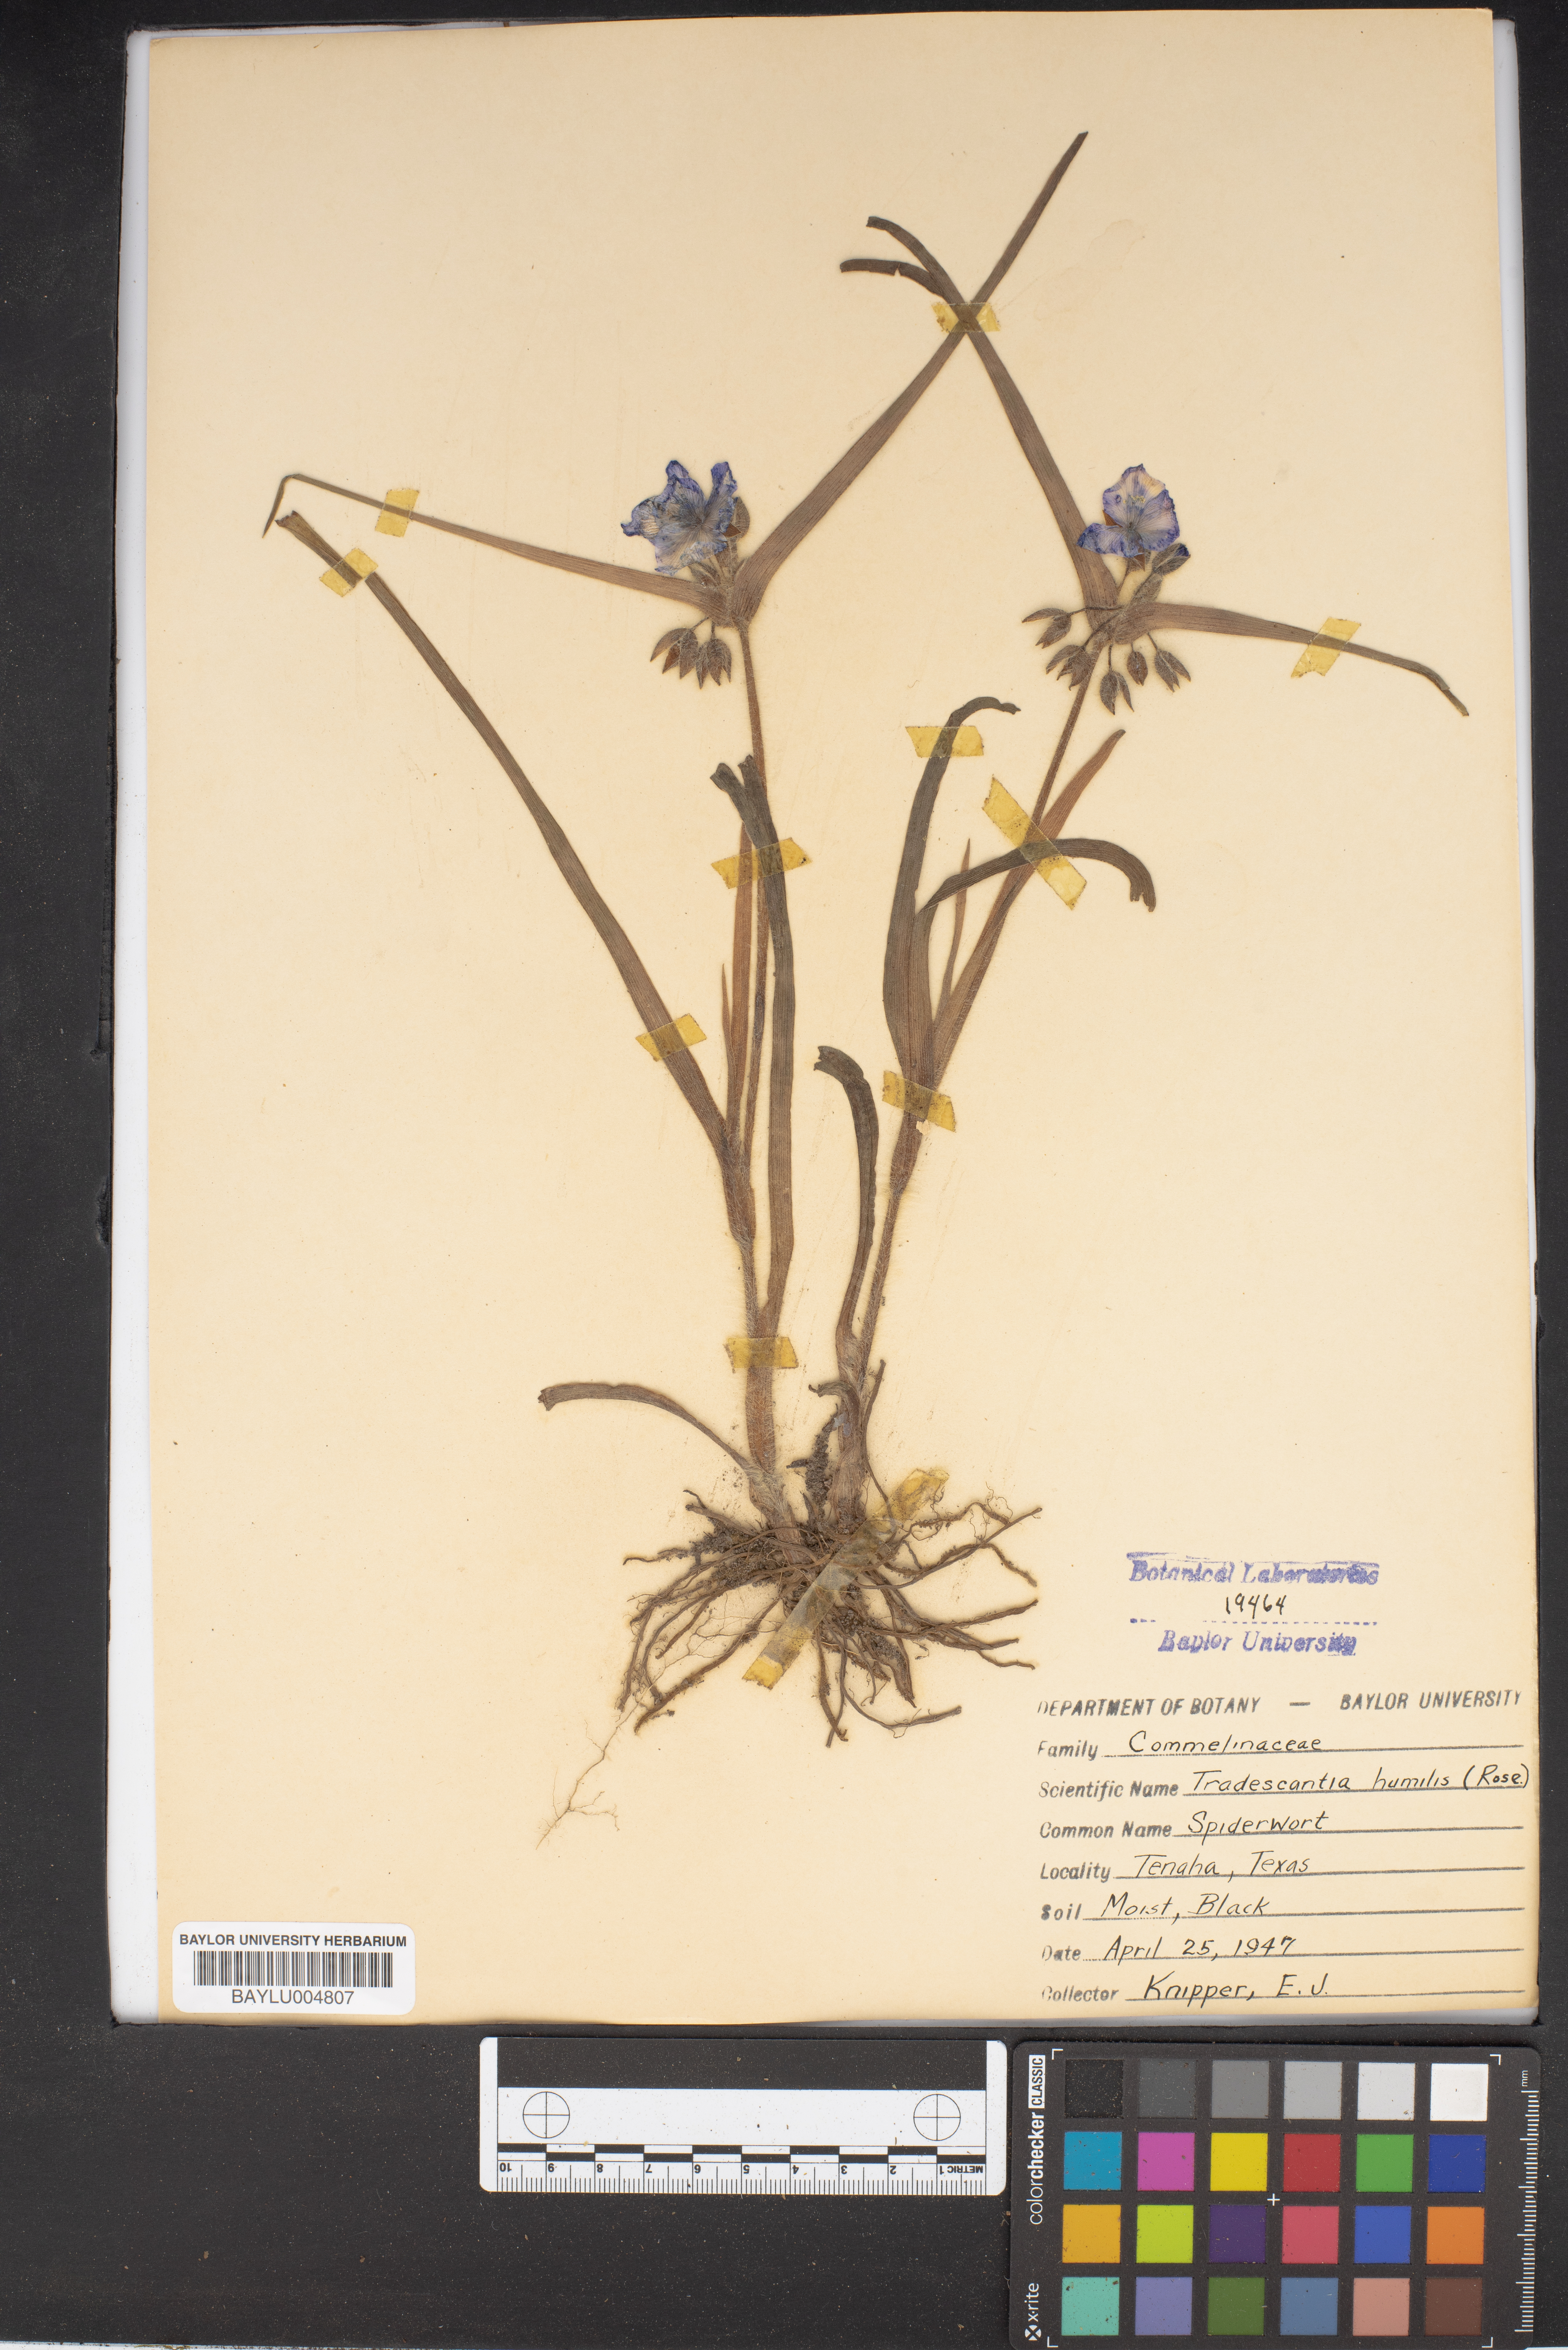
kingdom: Plantae
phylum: Tracheophyta
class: Liliopsida
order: Commelinales
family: Commelinaceae
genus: Tradescantia
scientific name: Tradescantia humilis
